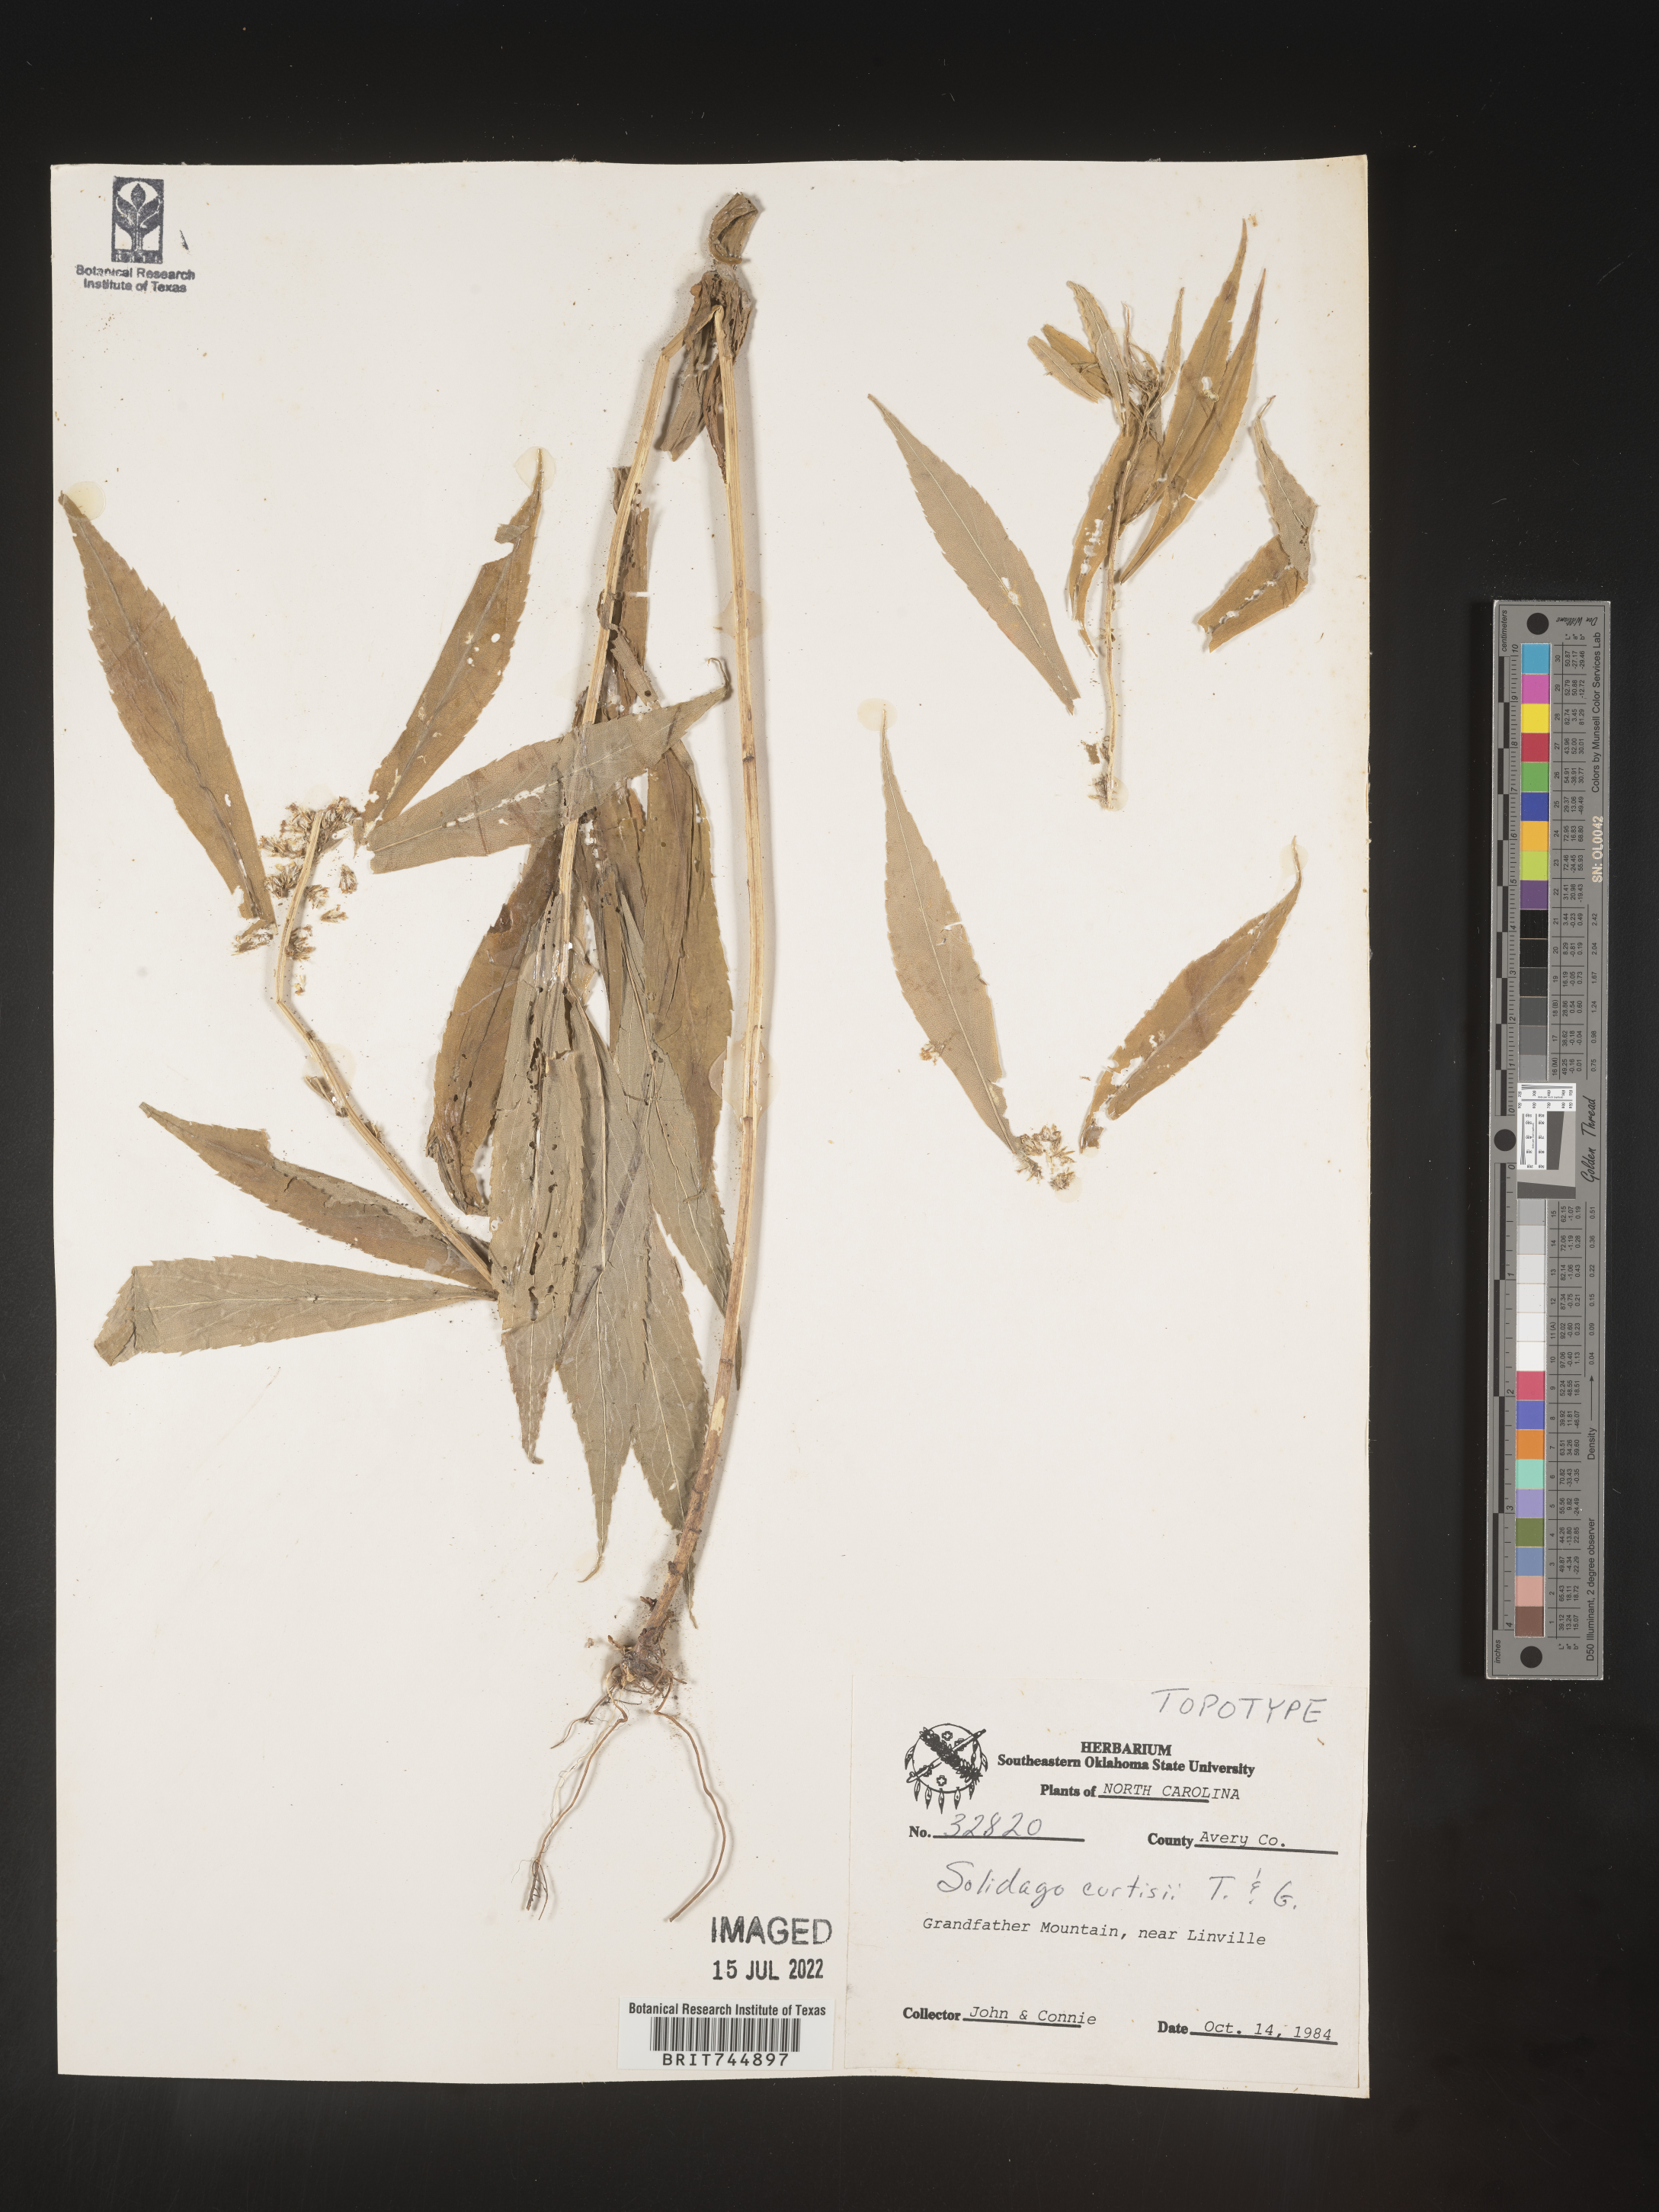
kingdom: Plantae
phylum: Tracheophyta
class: Magnoliopsida
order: Asterales
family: Asteraceae
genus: Solidago
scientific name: Solidago curtisii
